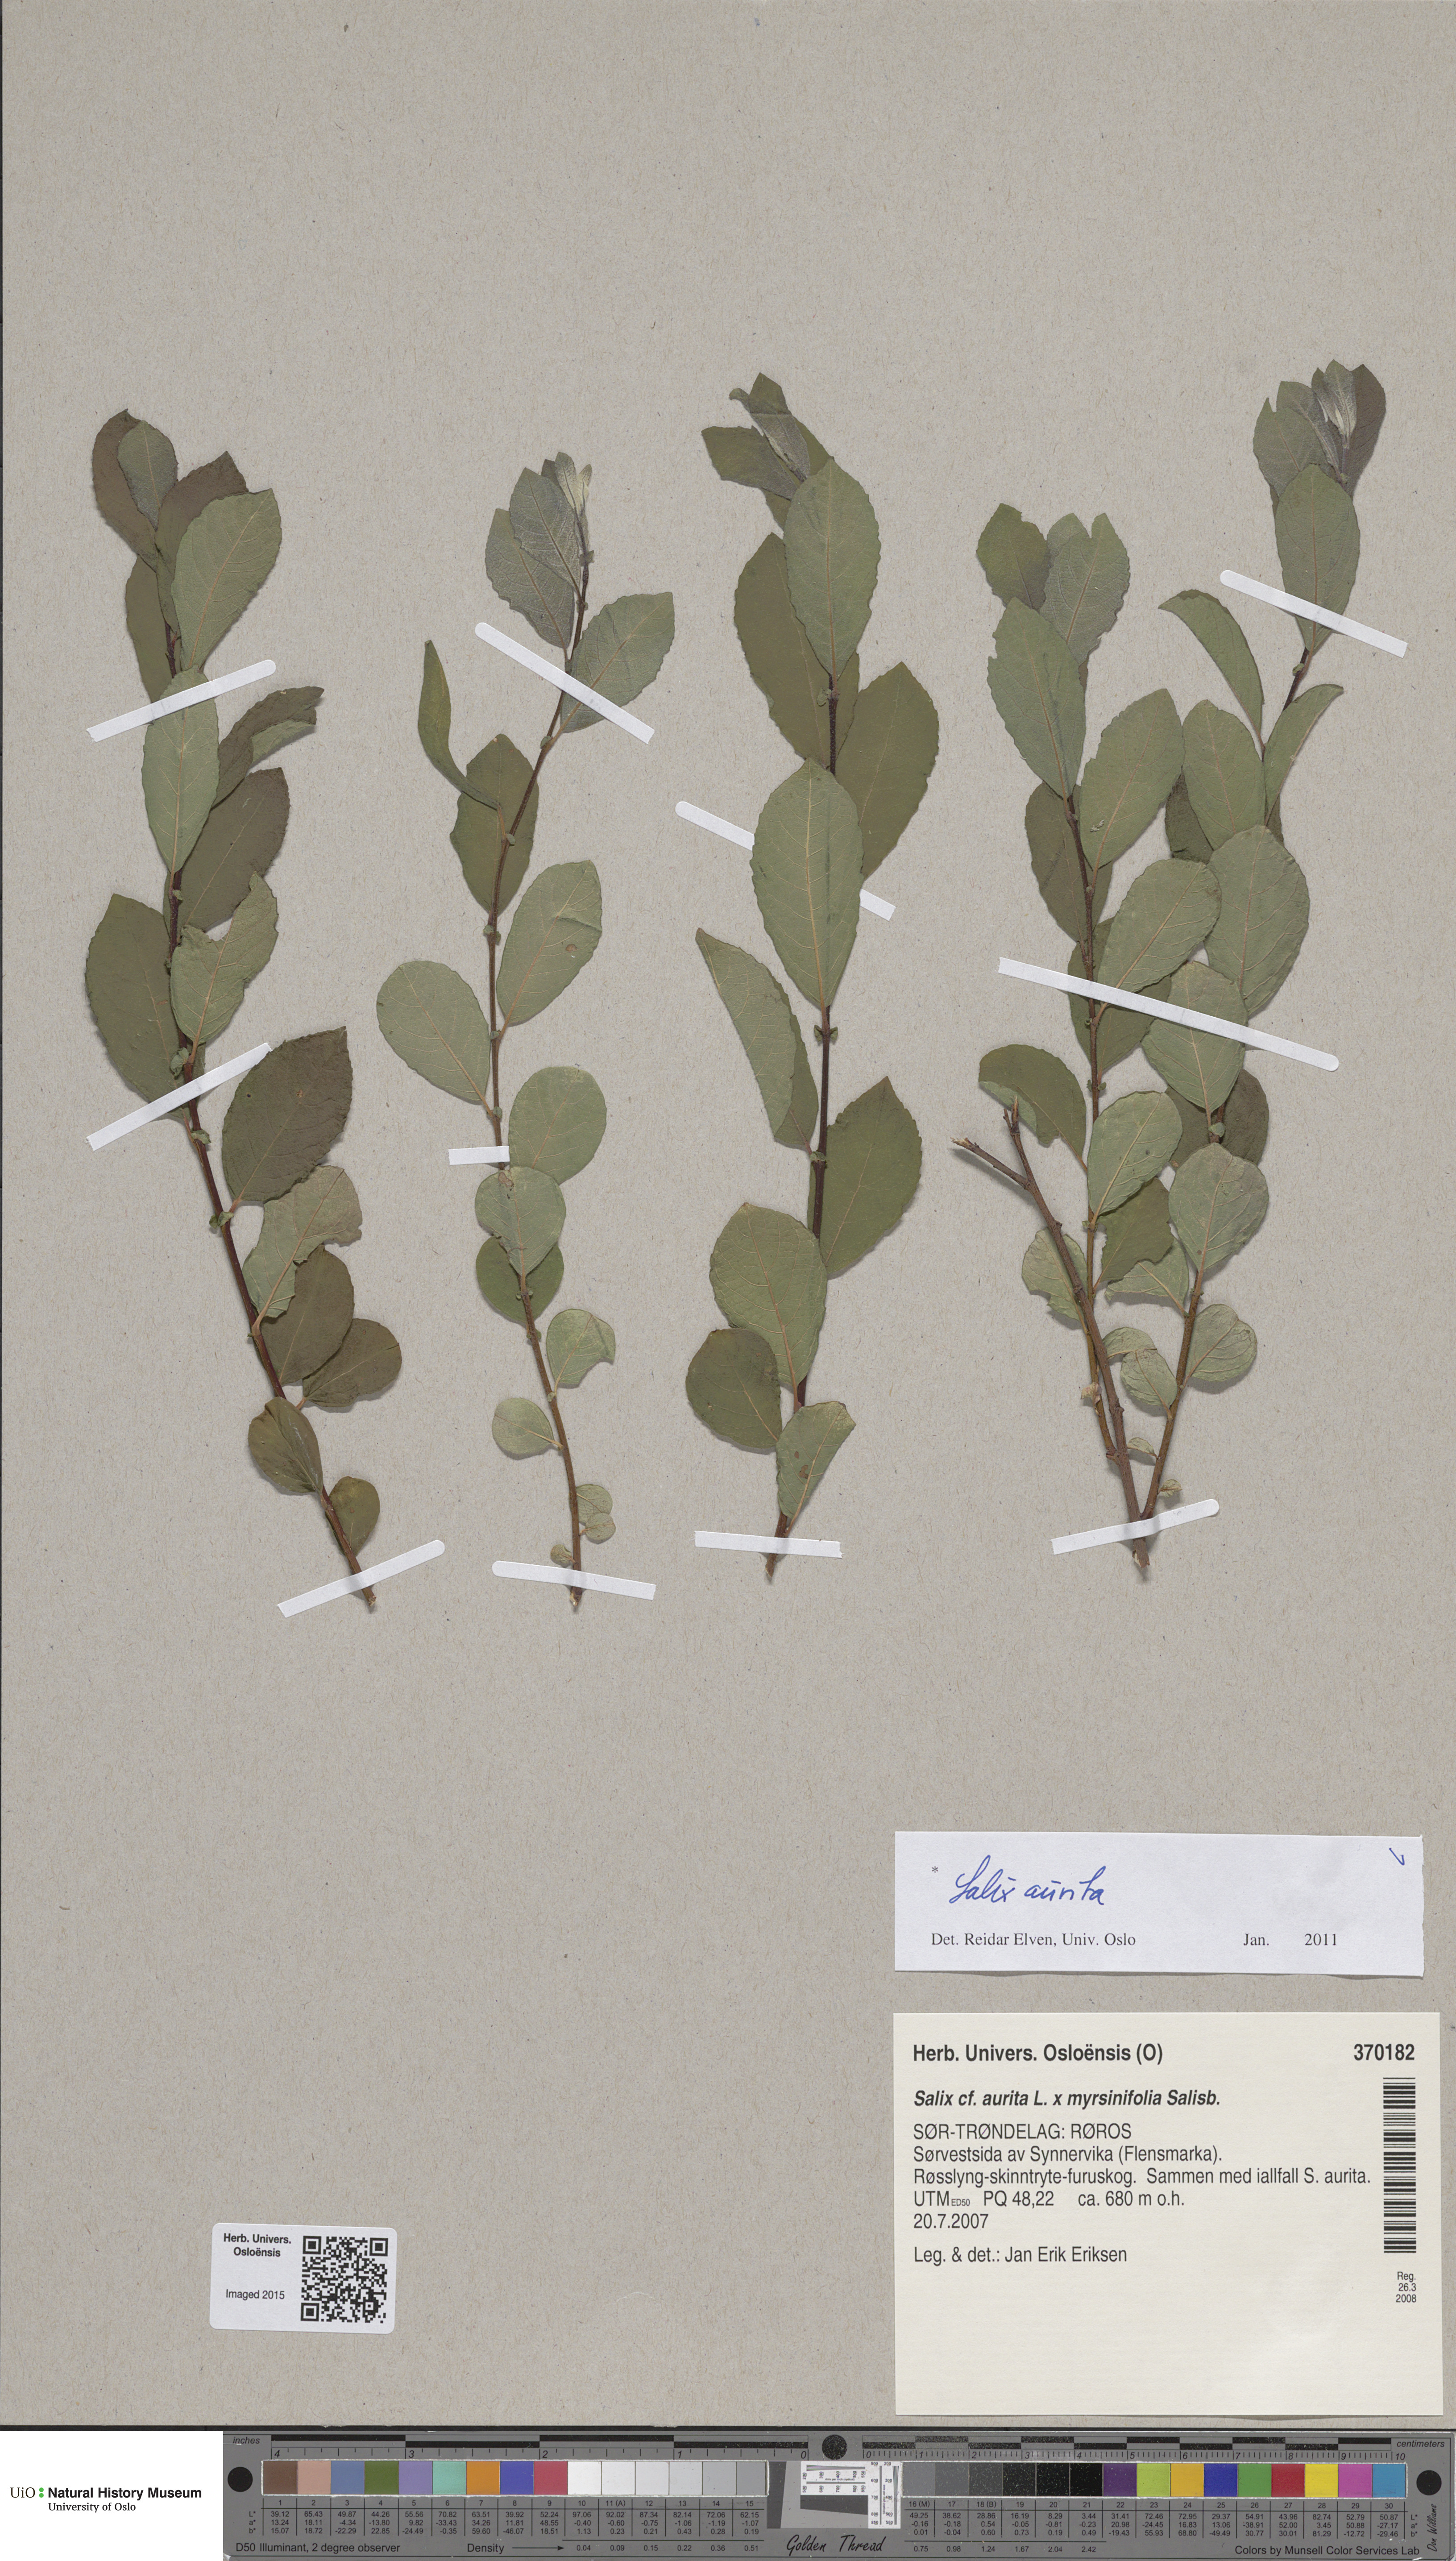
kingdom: Plantae
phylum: Tracheophyta
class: Magnoliopsida
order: Malpighiales
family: Salicaceae
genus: Salix
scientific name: Salix aurita
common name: Eared willow
